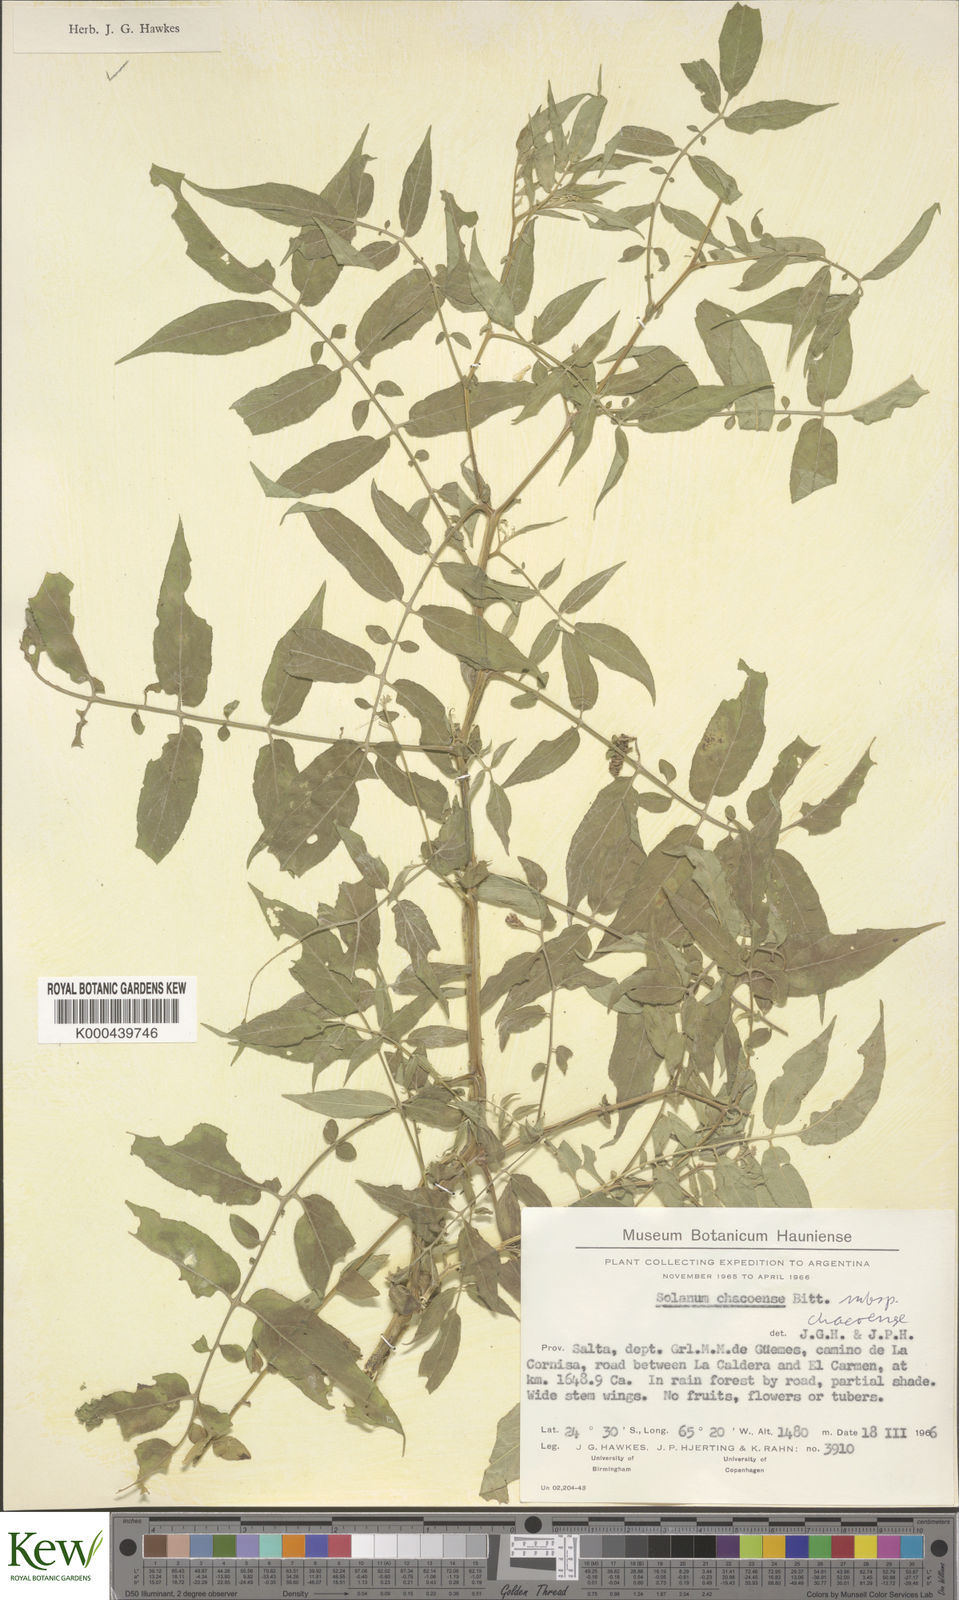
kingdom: Plantae
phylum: Tracheophyta
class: Magnoliopsida
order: Solanales
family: Solanaceae
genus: Solanum
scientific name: Solanum chacoense
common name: Chaco potato
